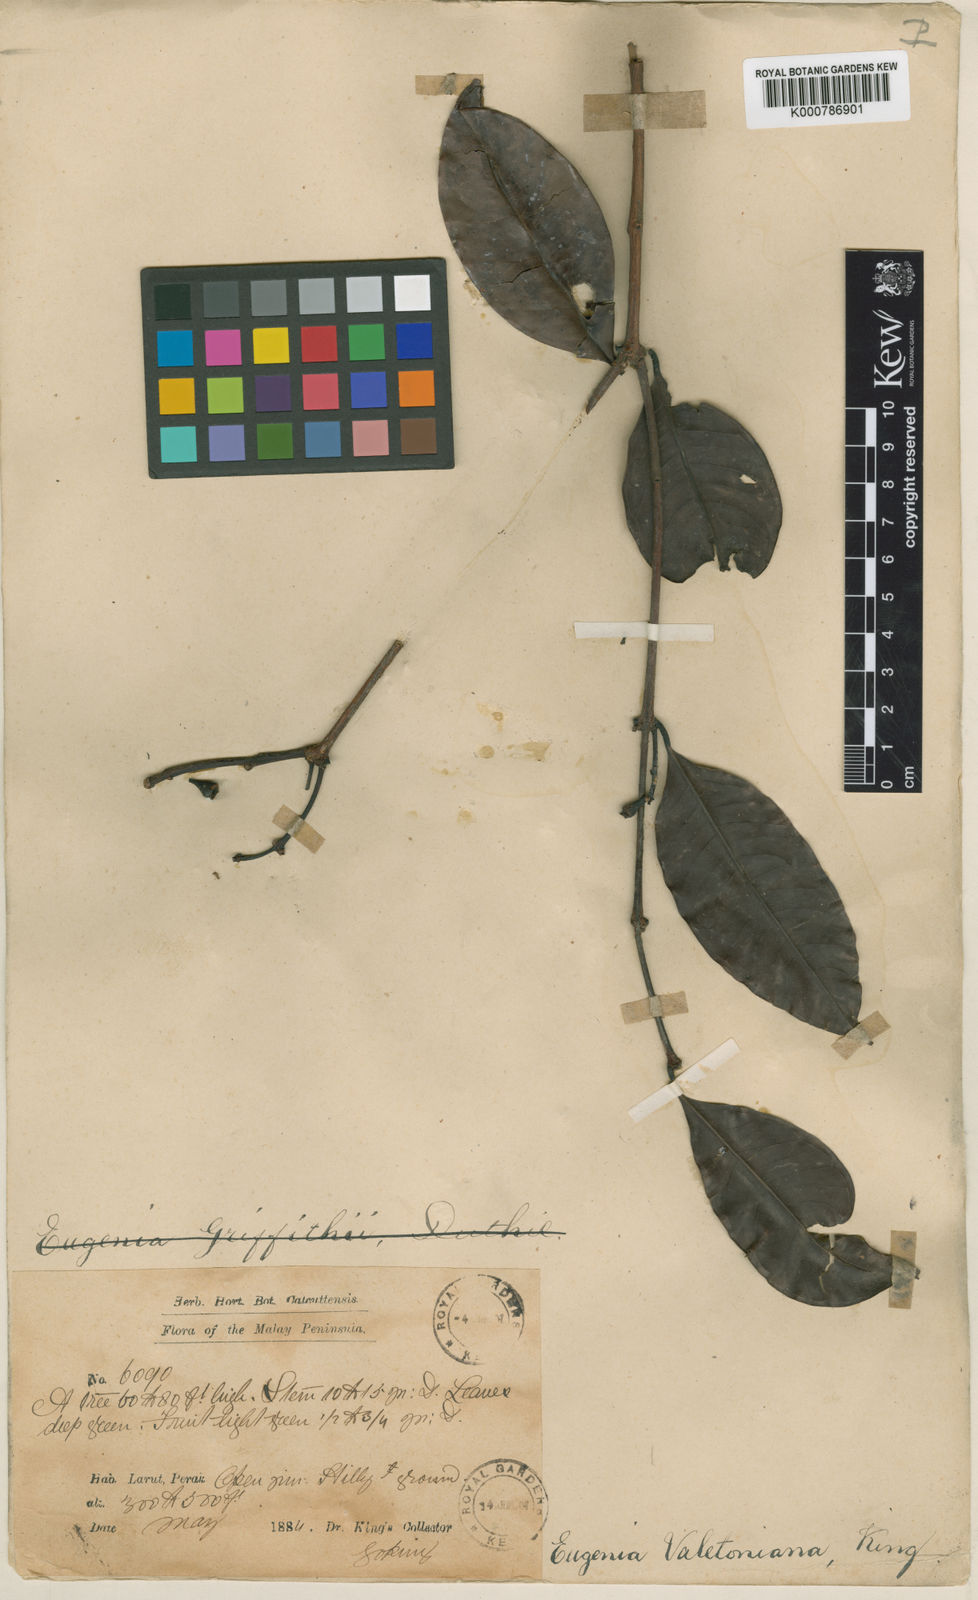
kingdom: Plantae
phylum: Tracheophyta
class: Magnoliopsida
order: Myrtales
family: Myrtaceae
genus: Syzygium
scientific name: Syzygium griffithii
